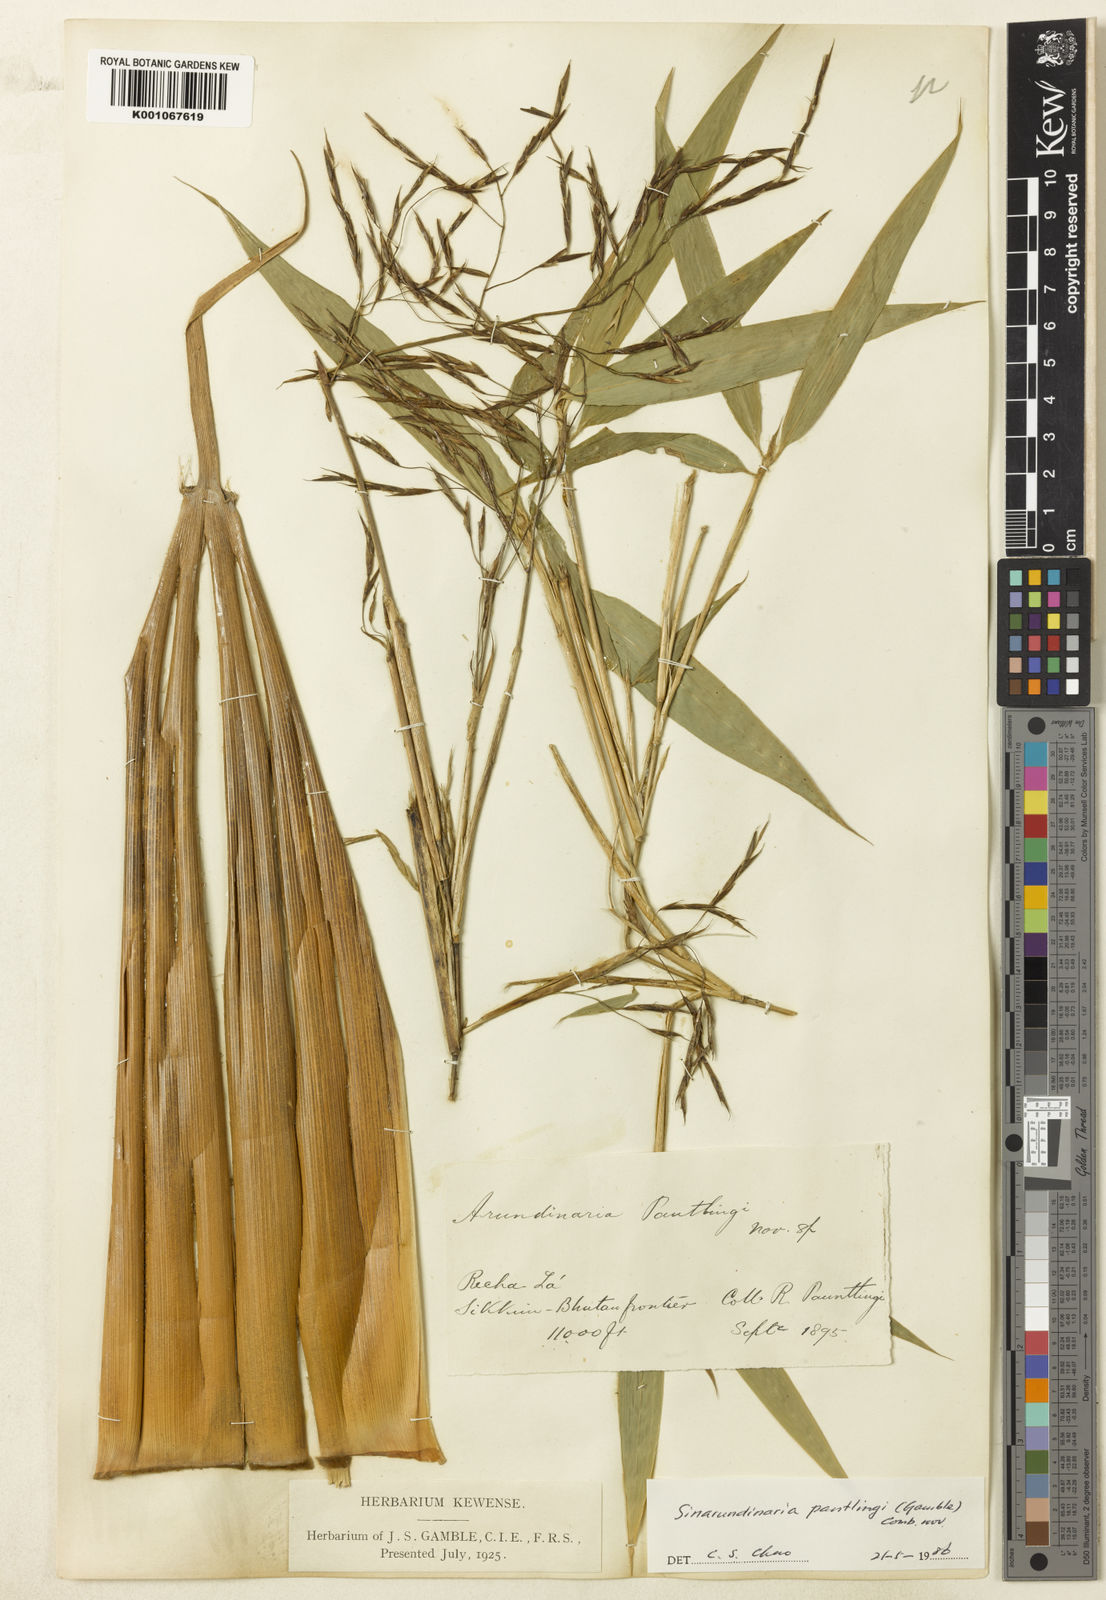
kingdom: Plantae
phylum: Tracheophyta
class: Liliopsida
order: Poales
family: Poaceae
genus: Yushania
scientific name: Yushania pantlingii
